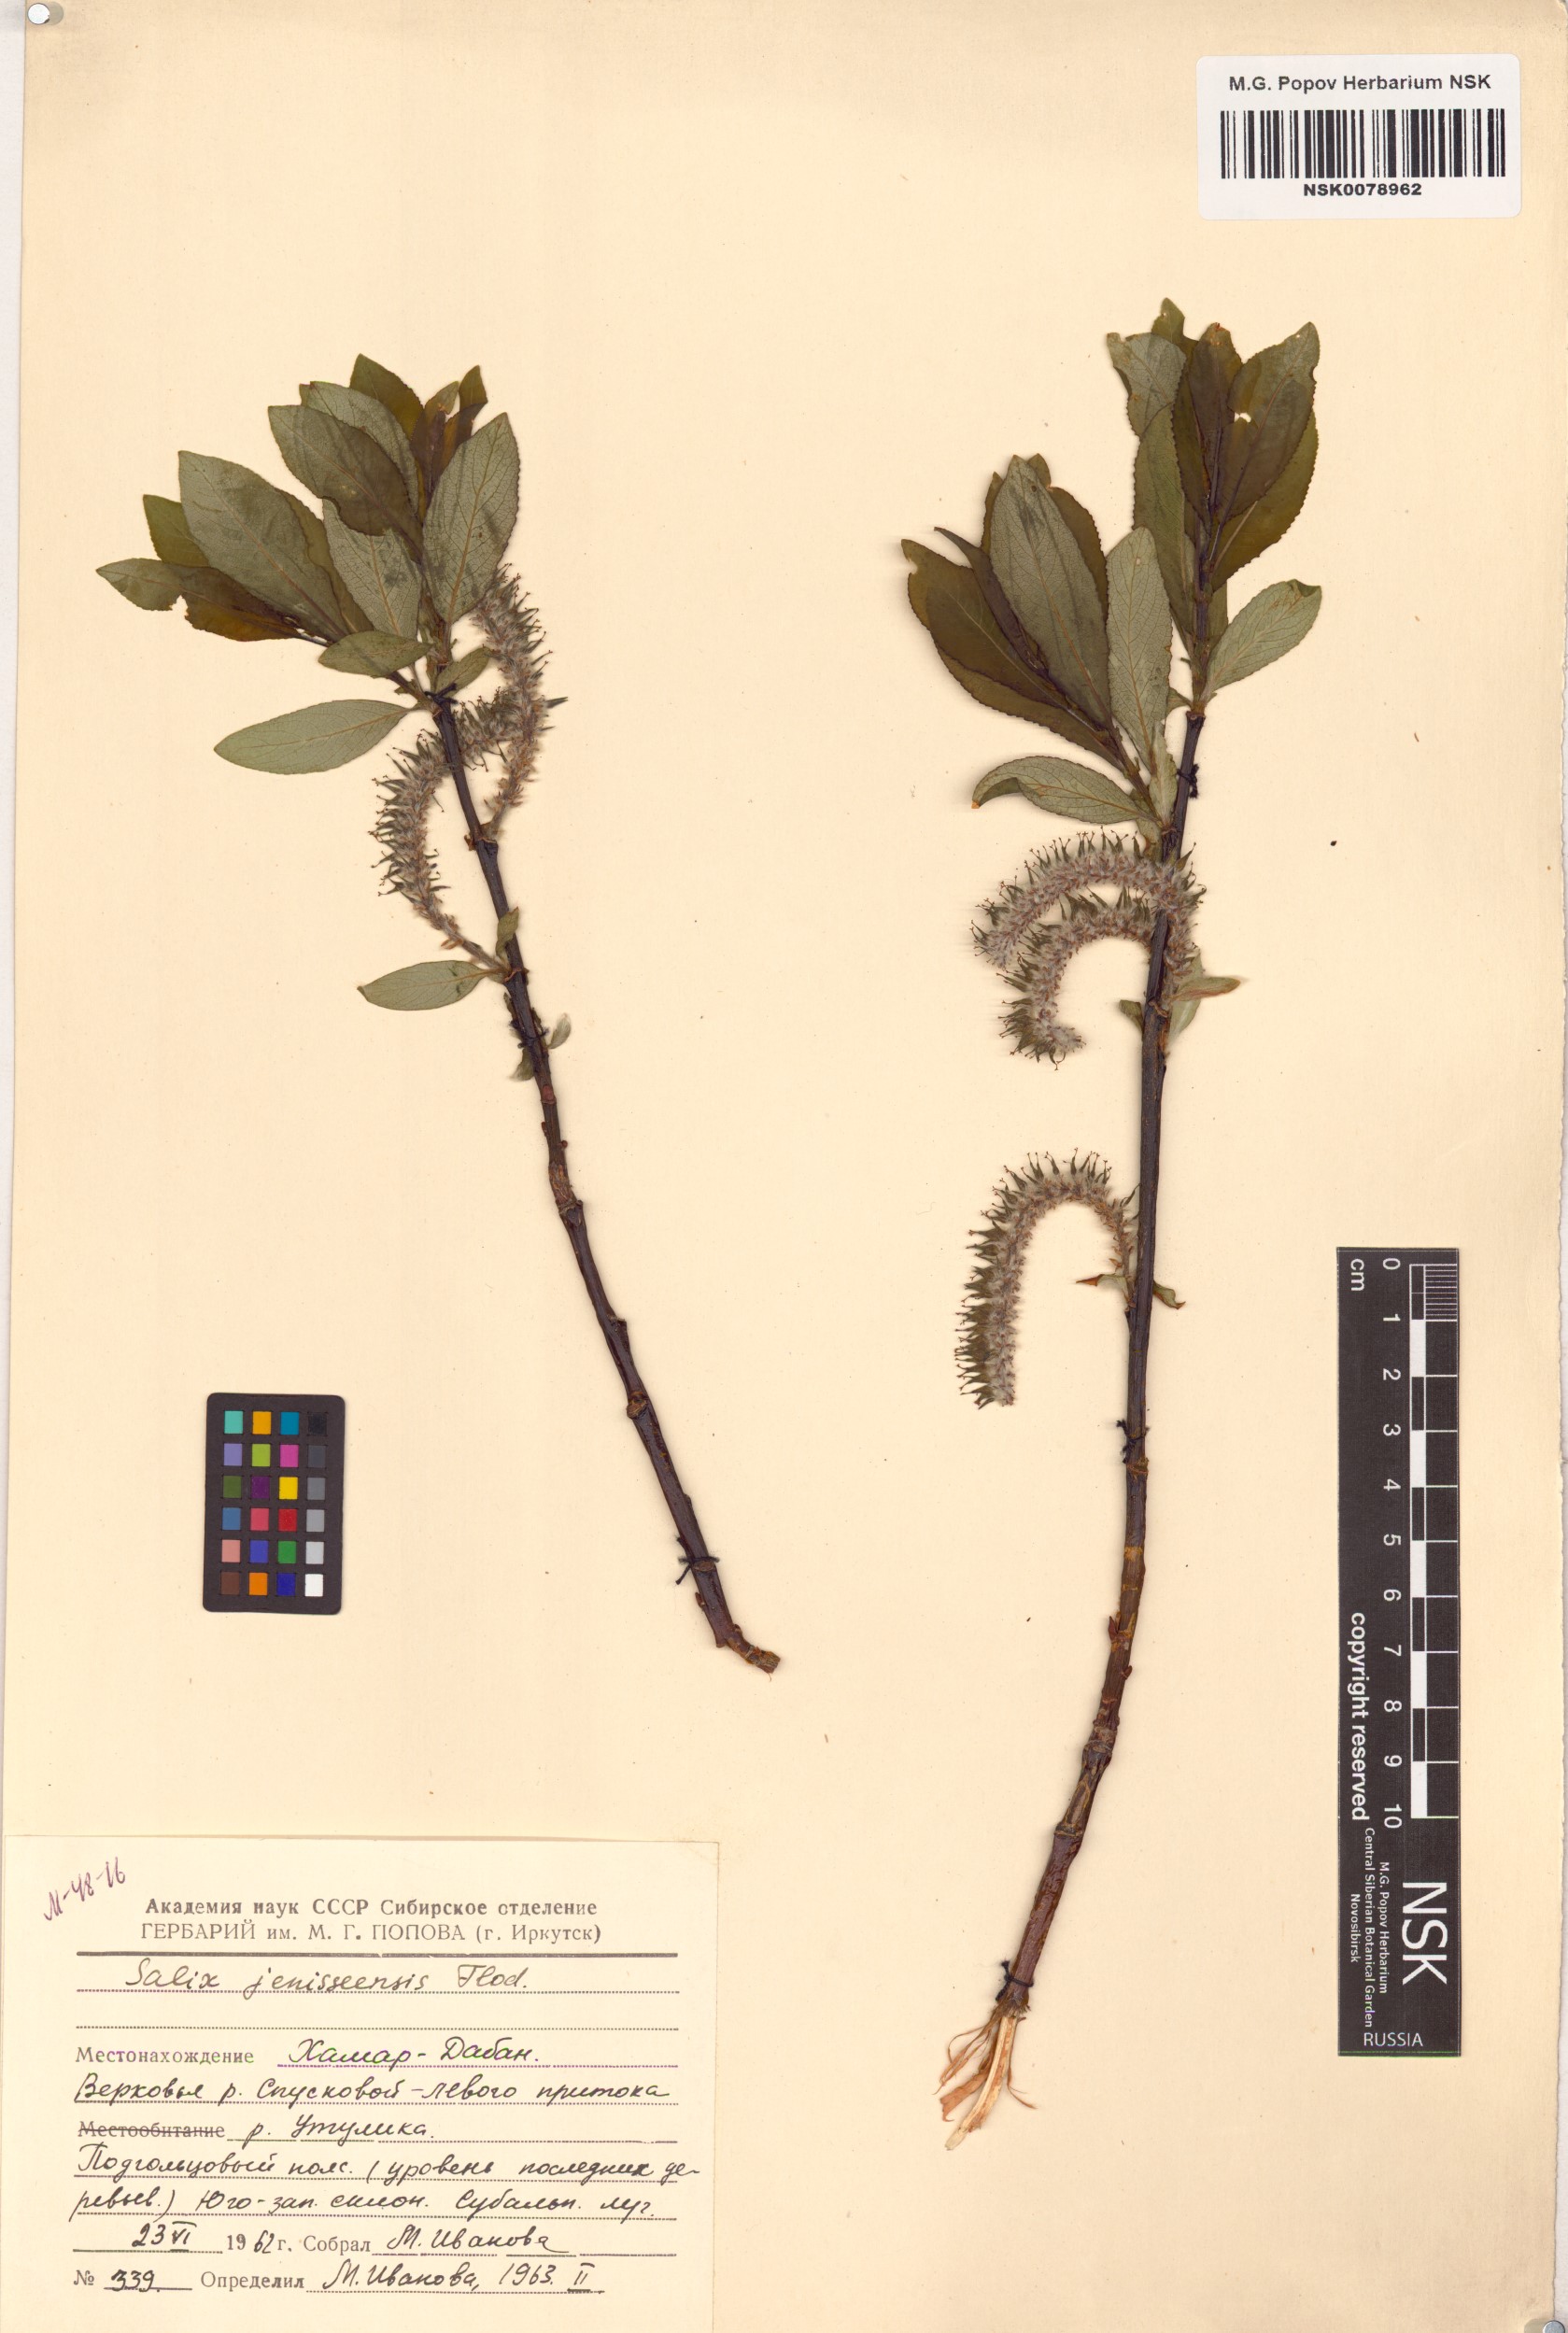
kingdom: Plantae
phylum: Tracheophyta
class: Magnoliopsida
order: Malpighiales
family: Salicaceae
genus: Salix
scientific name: Salix jenisseensis
